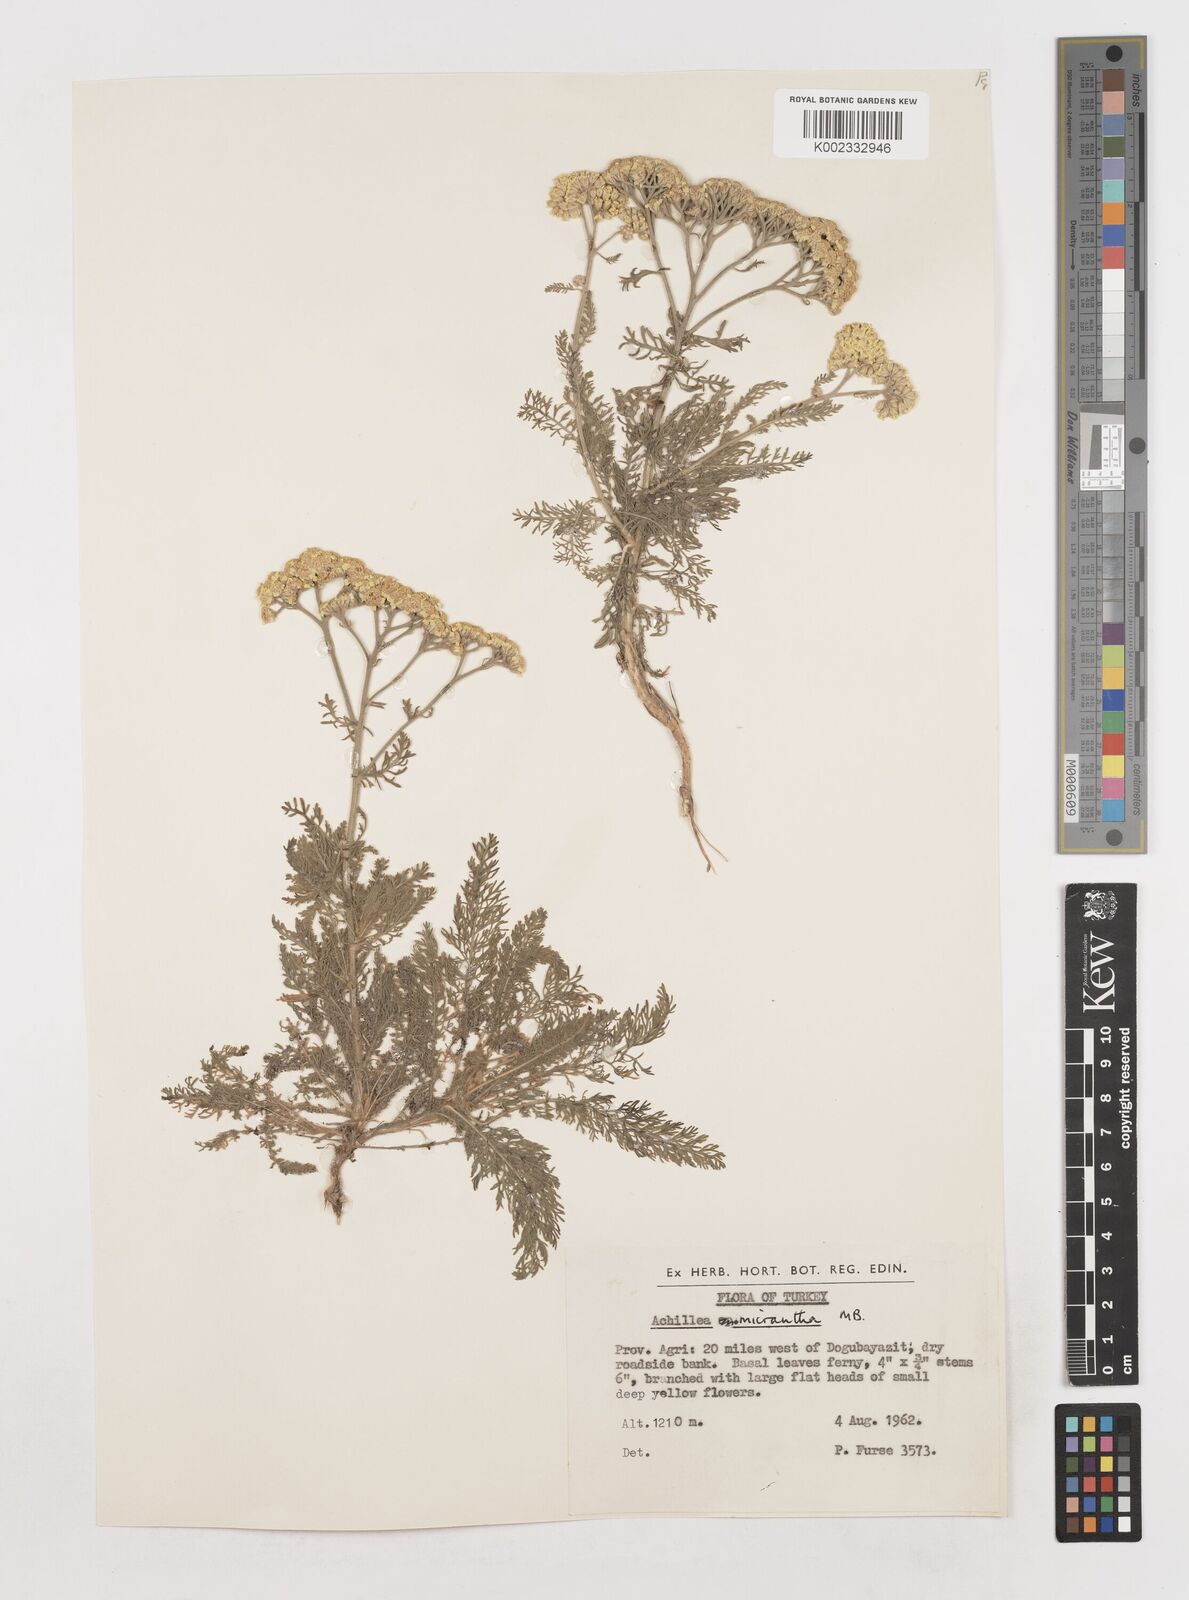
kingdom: Plantae
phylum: Tracheophyta
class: Magnoliopsida
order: Asterales
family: Asteraceae
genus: Achillea
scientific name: Achillea arabica
